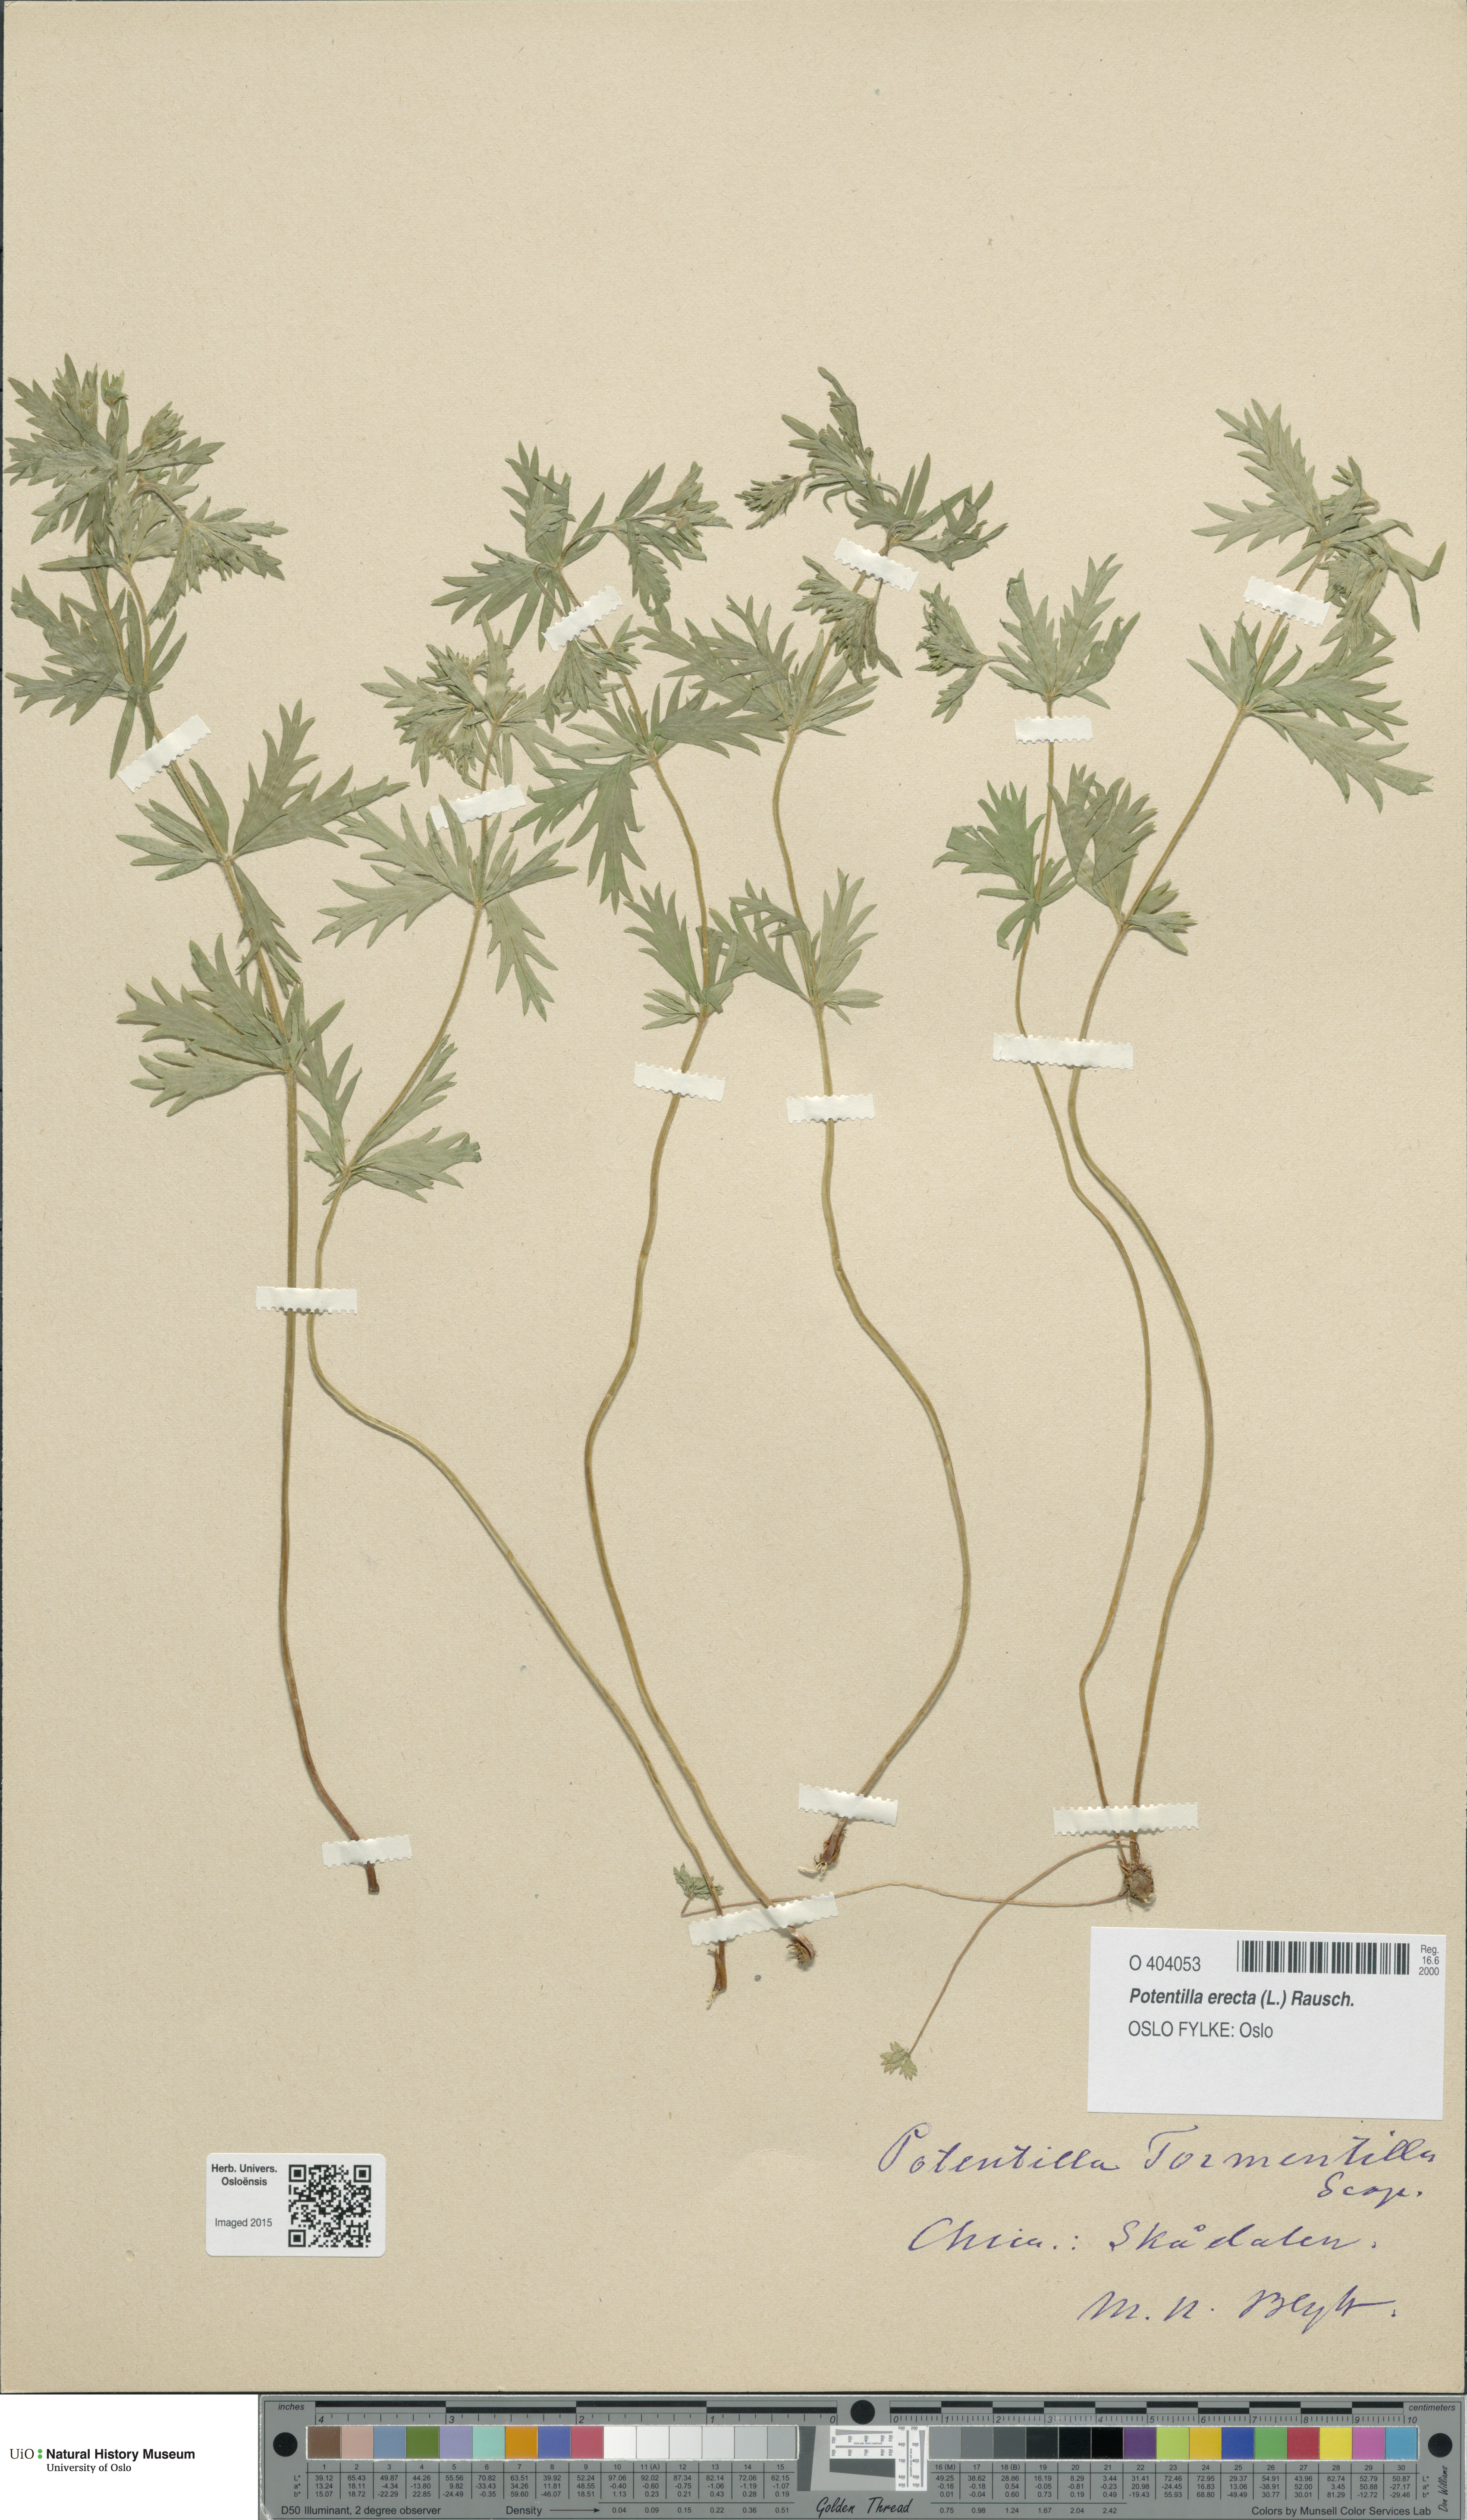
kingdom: Plantae
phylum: Tracheophyta
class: Magnoliopsida
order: Rosales
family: Rosaceae
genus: Potentilla
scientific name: Potentilla erecta
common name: Tormentil
